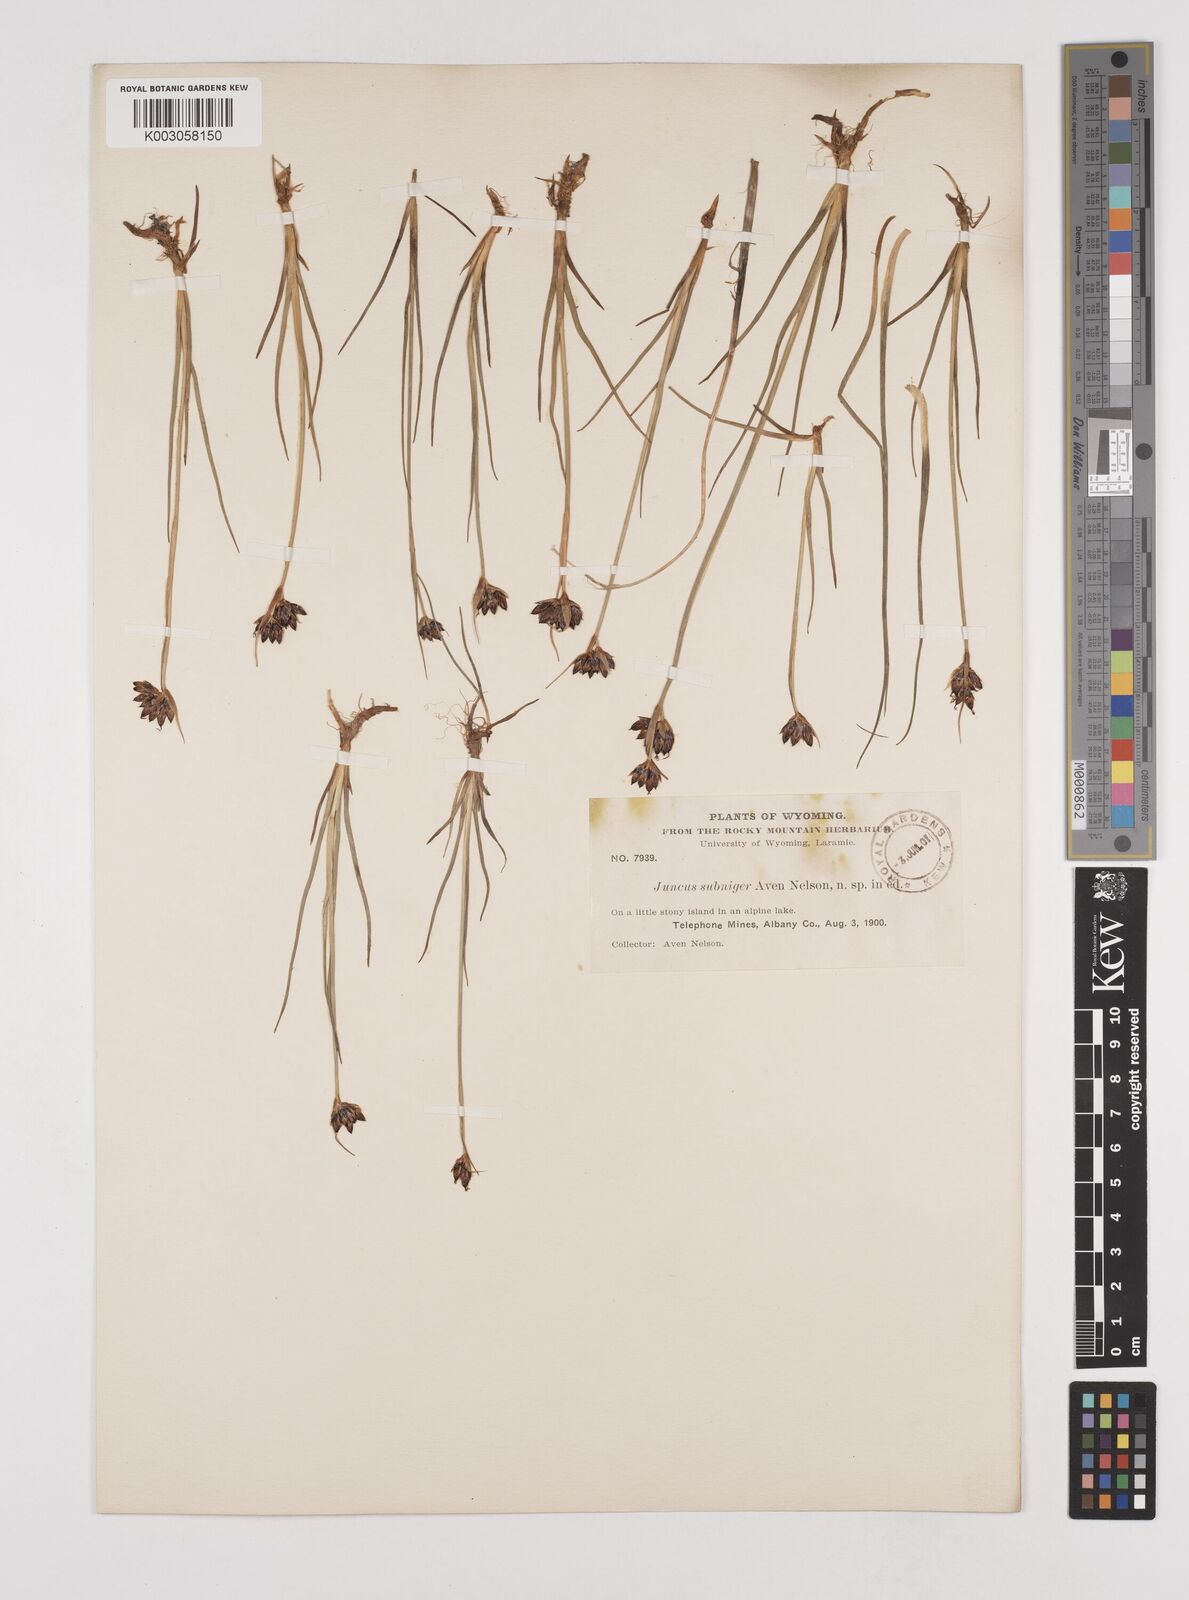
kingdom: Plantae
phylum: Tracheophyta
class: Liliopsida
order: Poales
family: Juncaceae
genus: Juncus
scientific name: Juncus castaneus
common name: Chestnut rush
